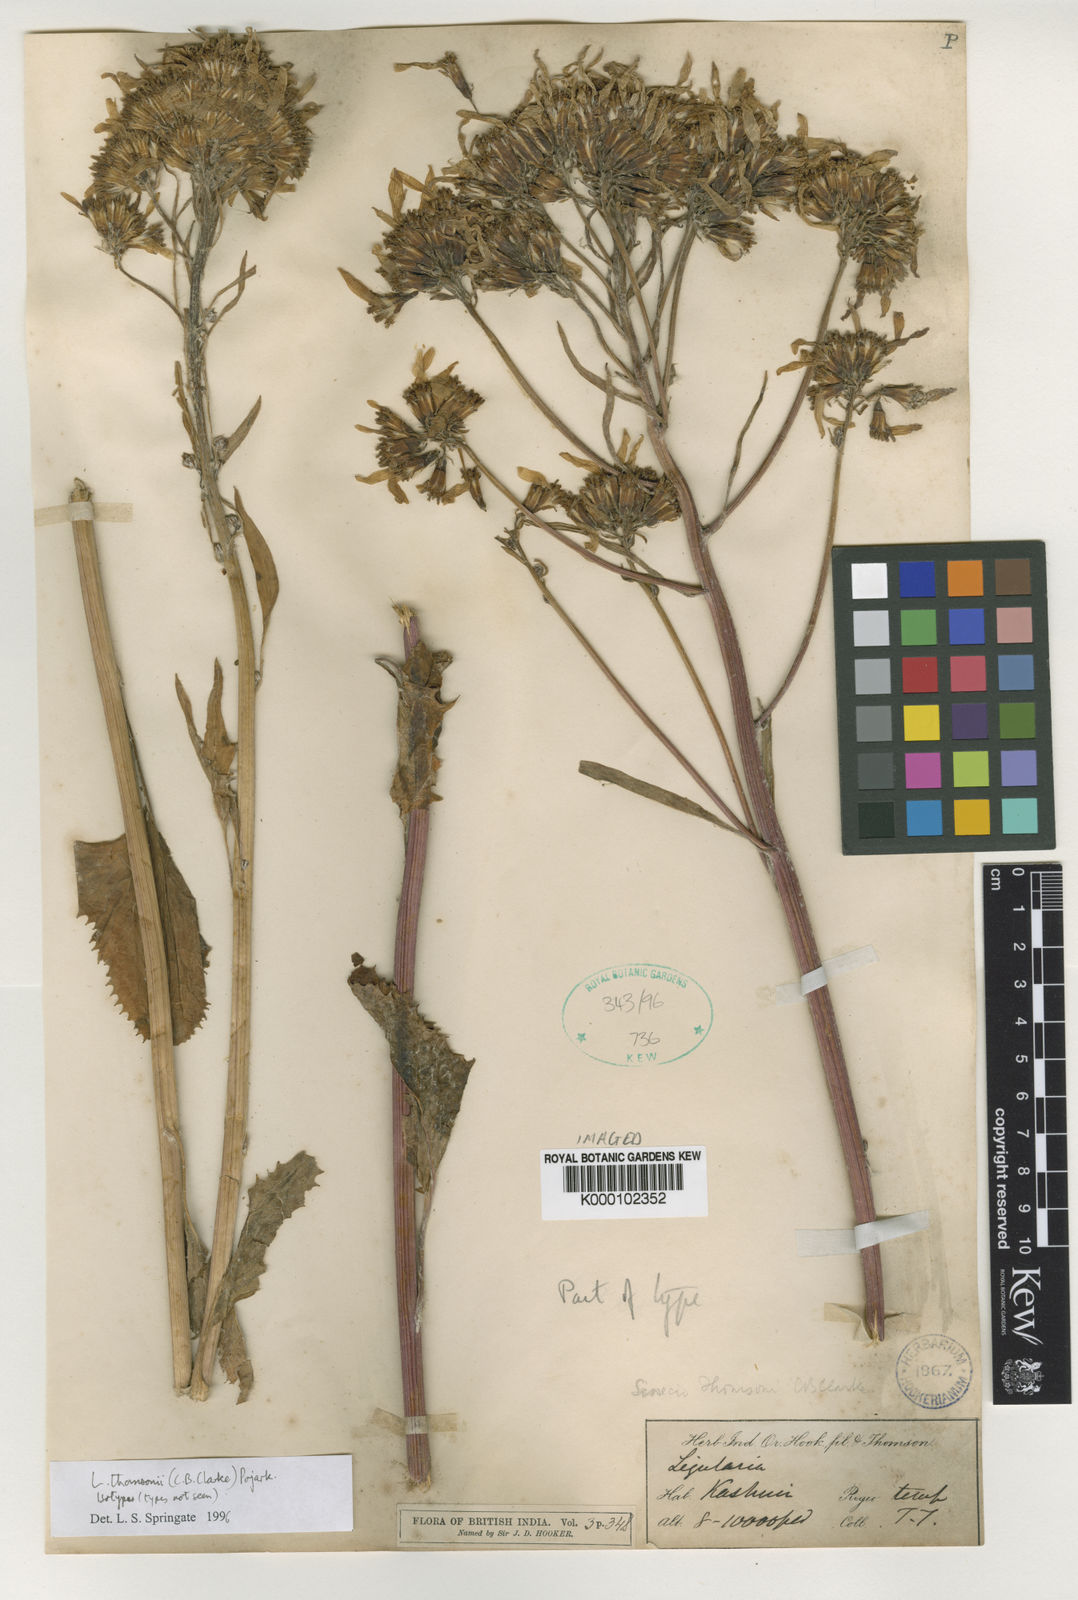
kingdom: Plantae
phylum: Tracheophyta
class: Magnoliopsida
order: Asterales
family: Asteraceae
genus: Vickifunkia
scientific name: Vickifunkia thomsonii
